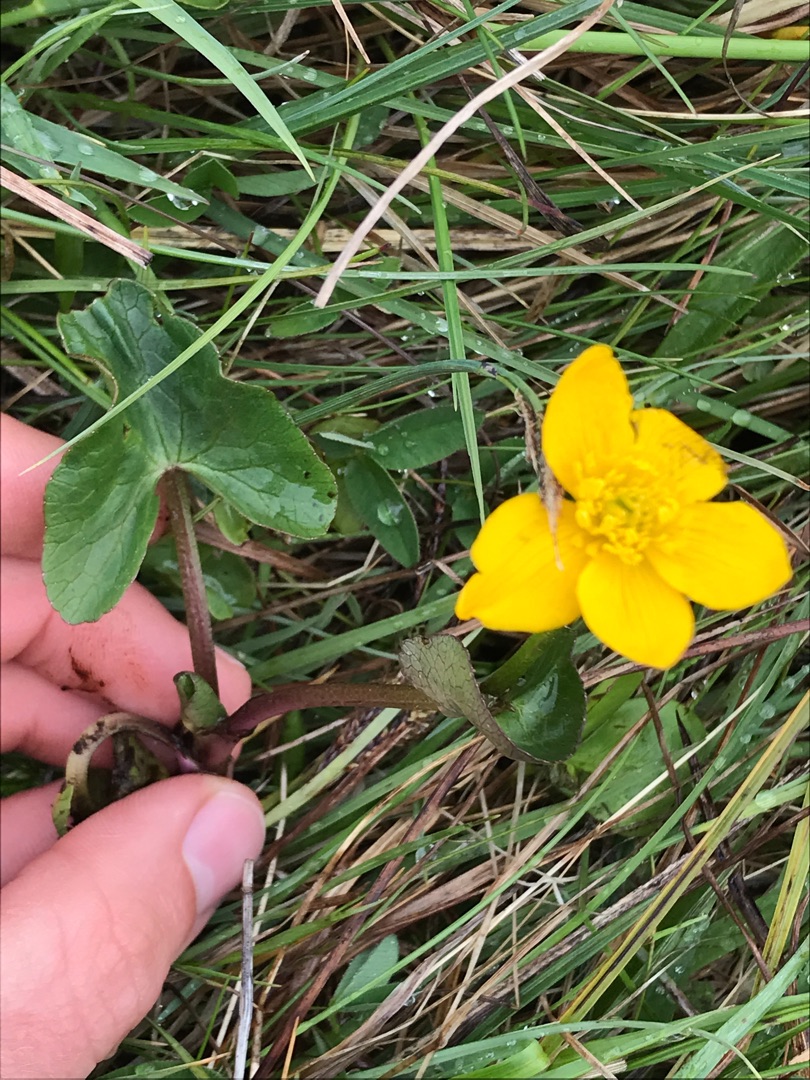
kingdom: Plantae
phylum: Tracheophyta
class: Magnoliopsida
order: Ranunculales
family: Ranunculaceae
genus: Caltha
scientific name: Caltha palustris
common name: Eng-kabbeleje
